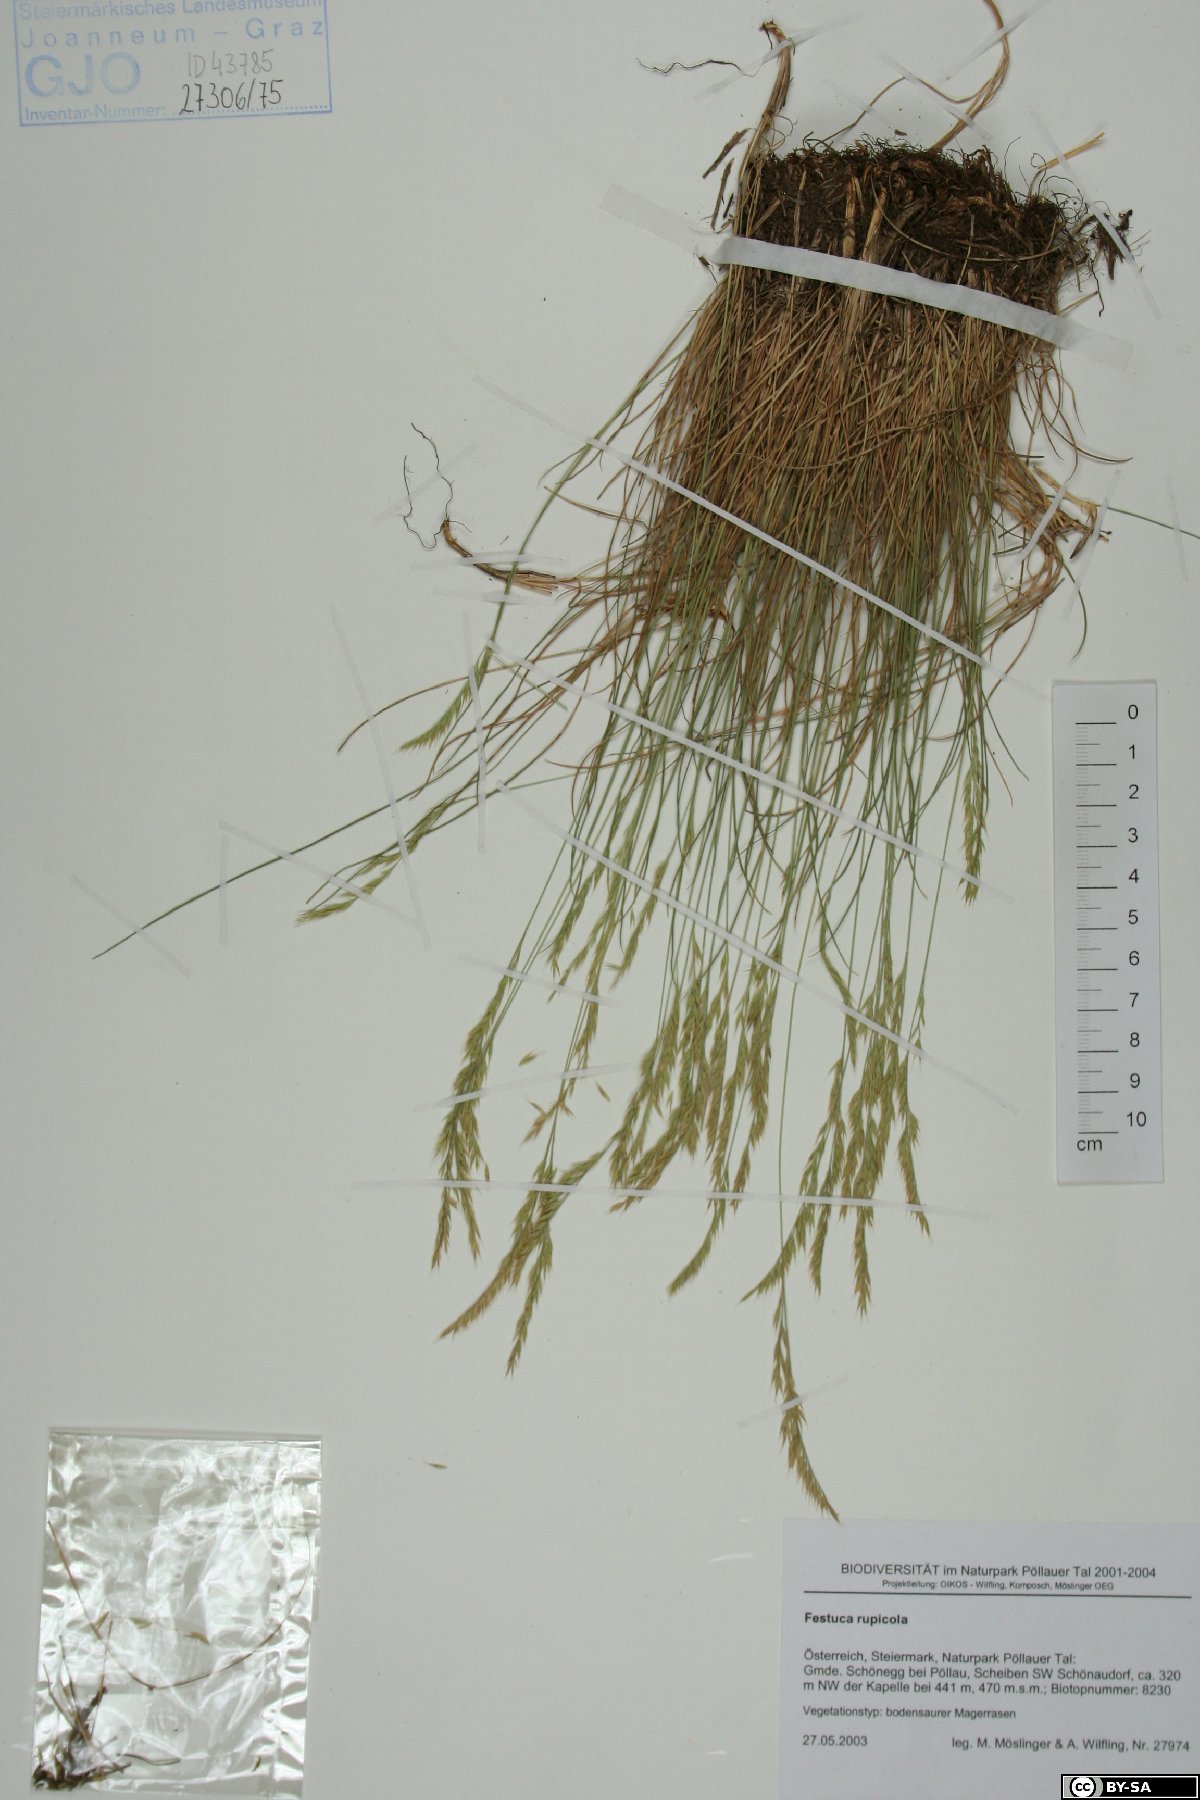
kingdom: Plantae
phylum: Tracheophyta
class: Liliopsida
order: Poales
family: Poaceae
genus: Festuca
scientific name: Festuca rupicola
